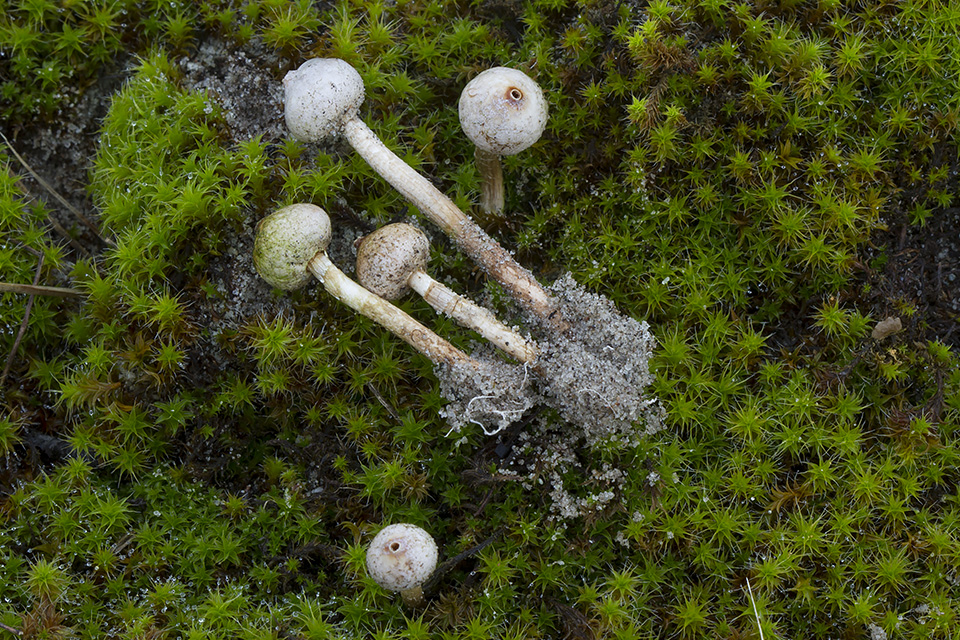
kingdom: Fungi
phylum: Basidiomycota
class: Agaricomycetes
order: Agaricales
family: Agaricaceae
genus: Tulostoma
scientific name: Tulostoma brumale
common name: vinter-stilkbovist
